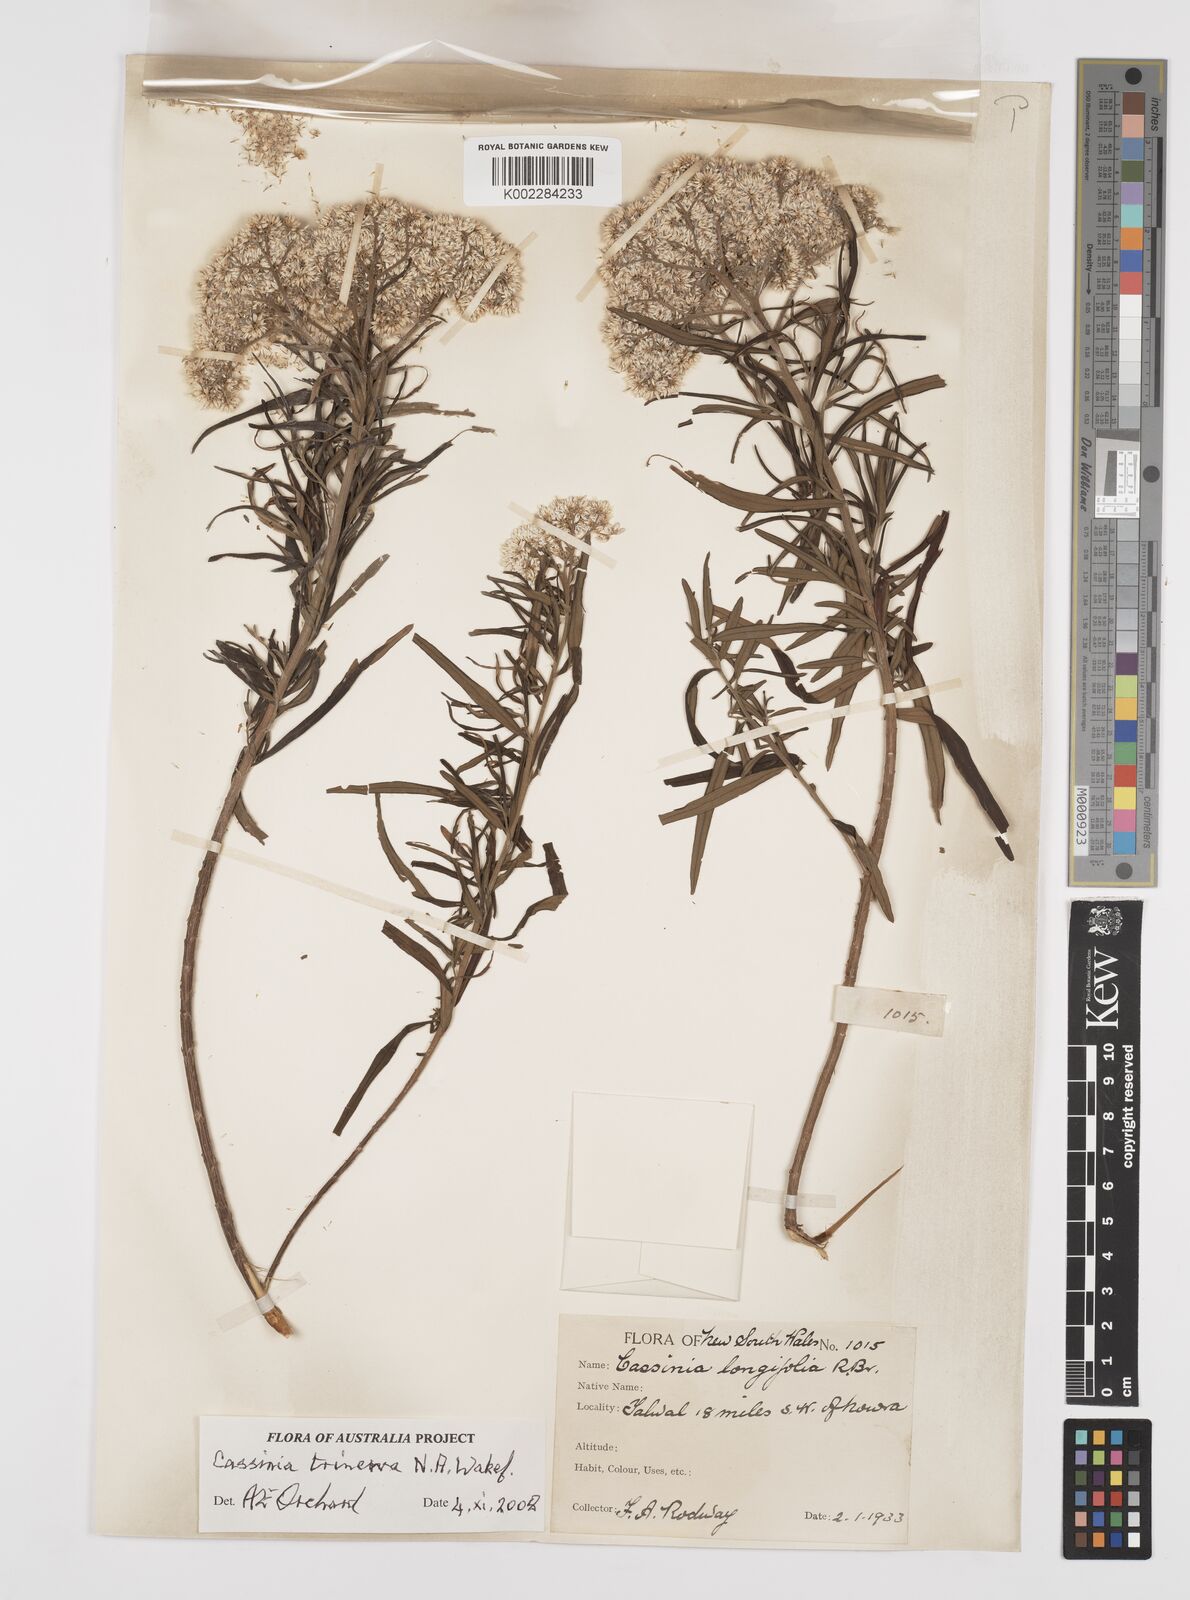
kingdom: Plantae
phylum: Tracheophyta
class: Magnoliopsida
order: Asterales
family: Asteraceae
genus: Cassinia
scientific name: Cassinia trinerva
